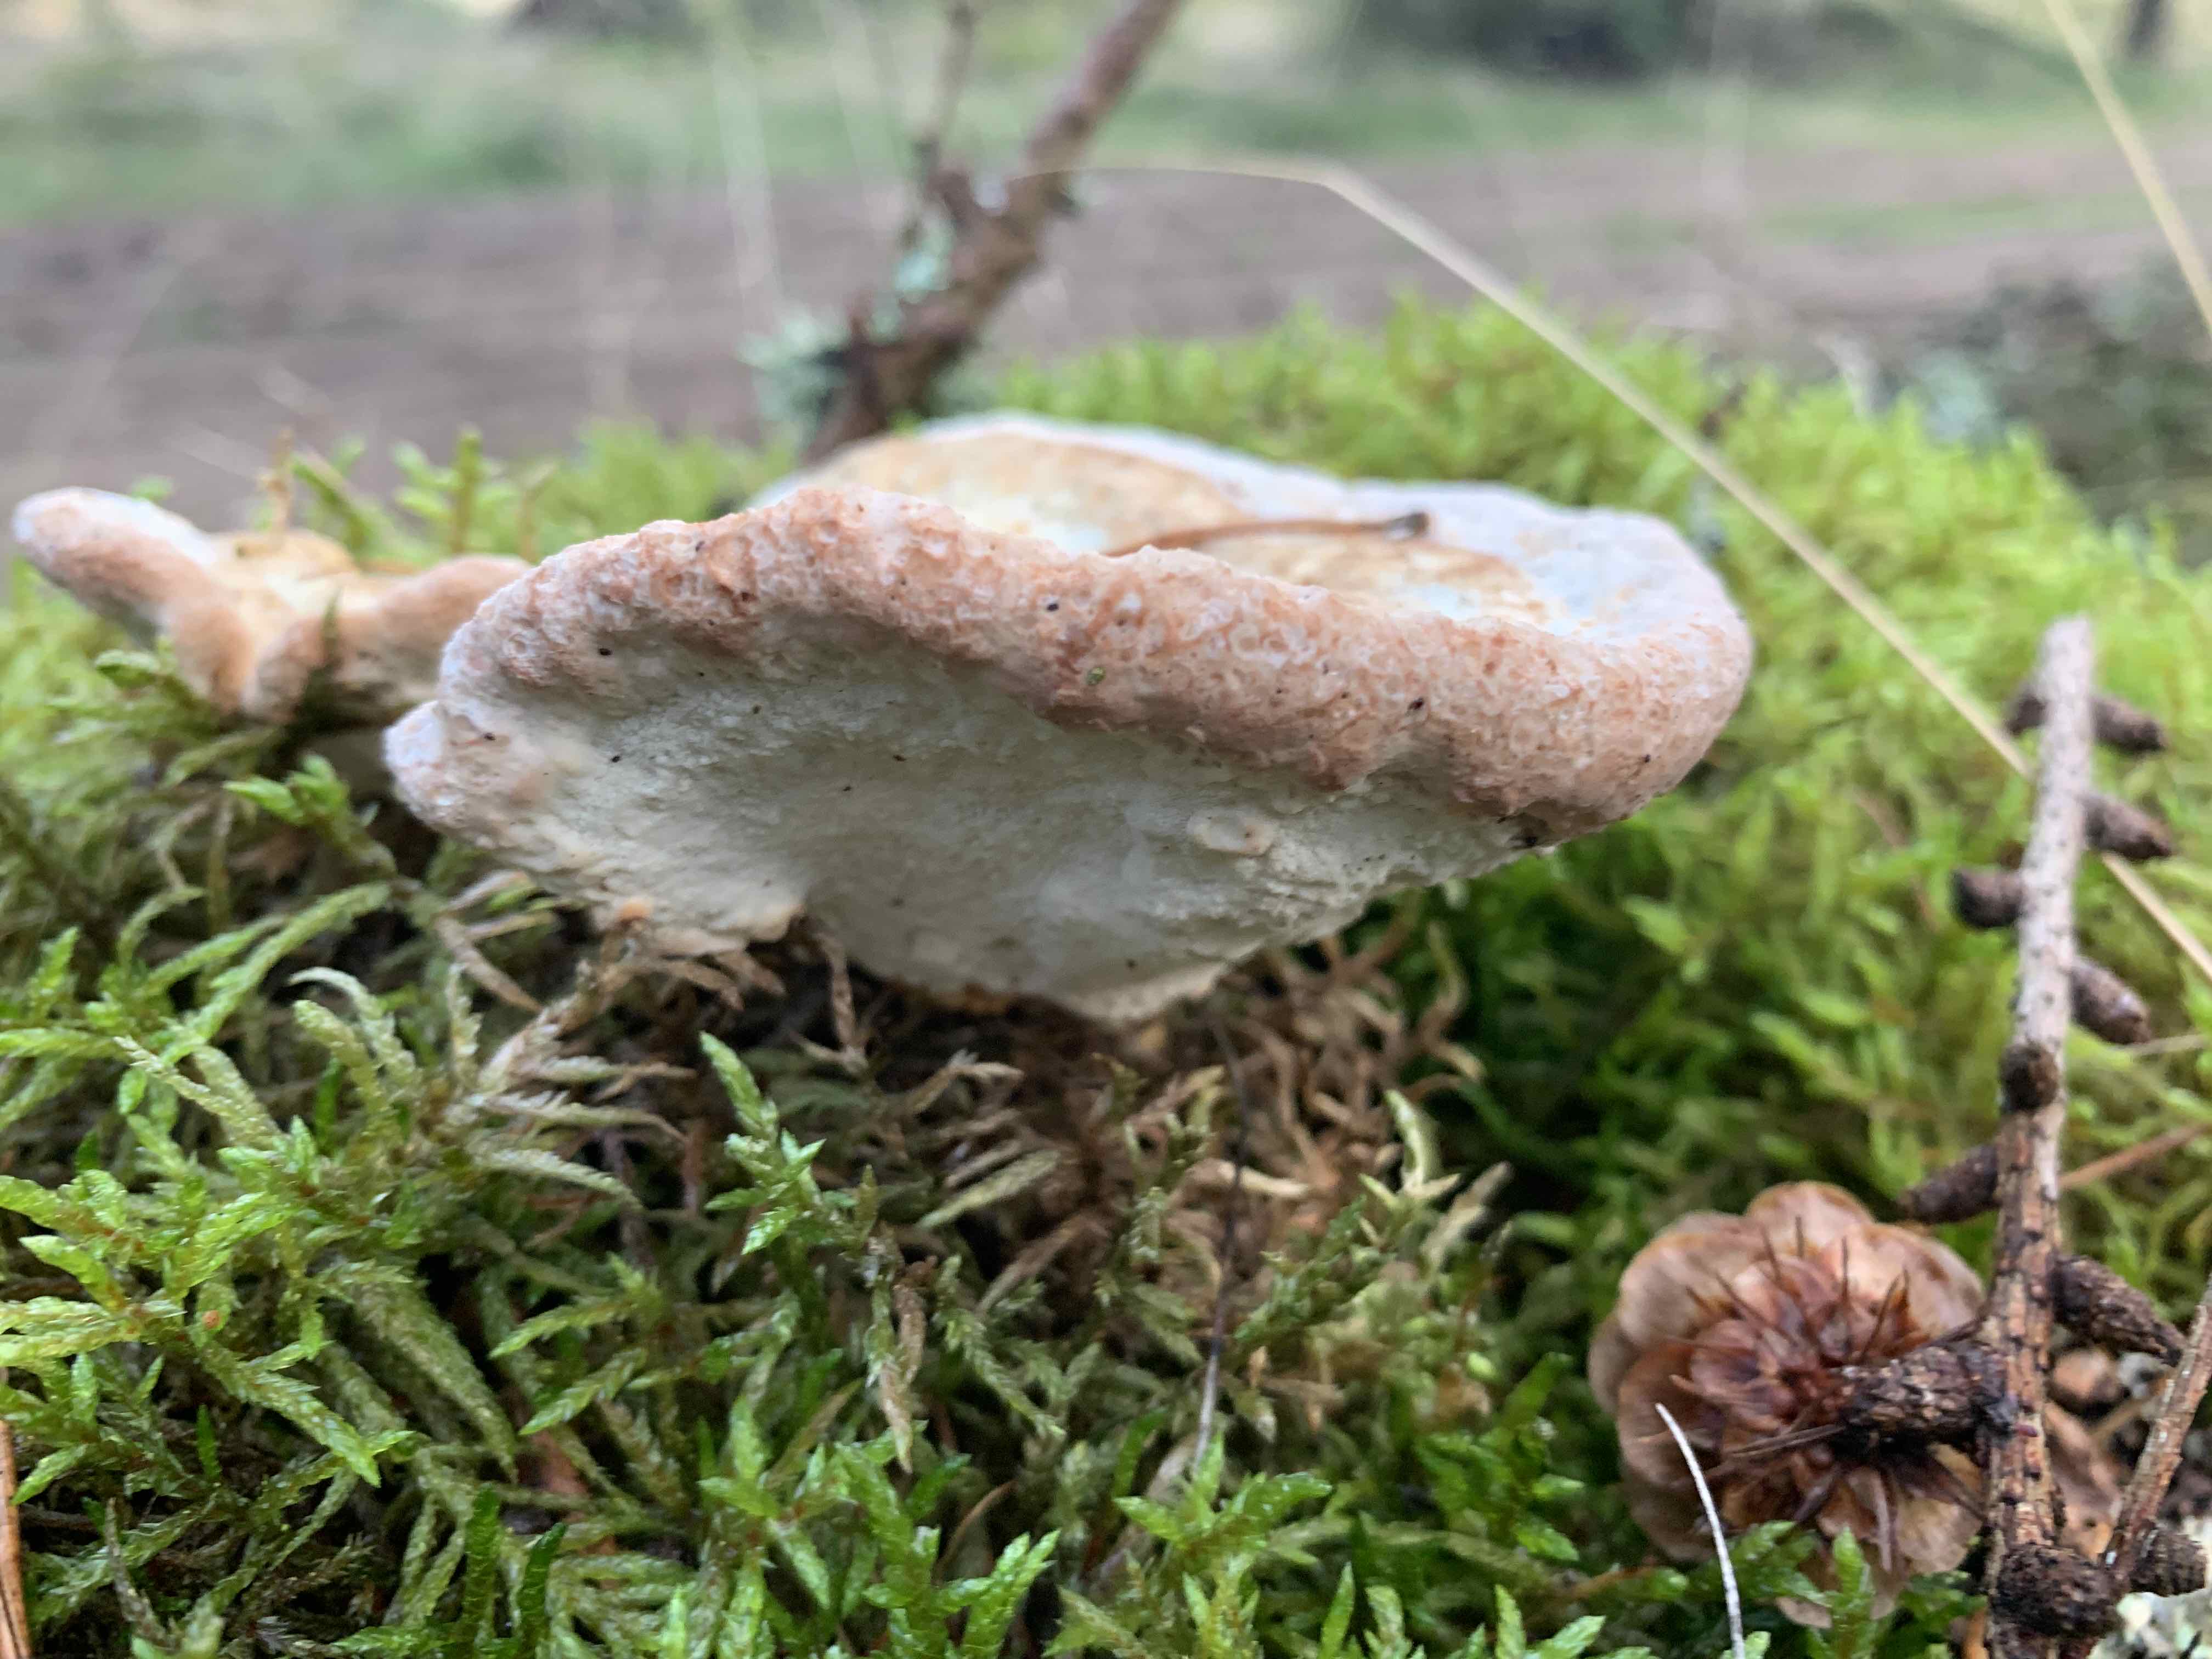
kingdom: Fungi
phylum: Basidiomycota
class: Agaricomycetes
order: Polyporales
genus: Calcipostia
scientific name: Calcipostia guttulata
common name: dråbe-kødporesvamp
